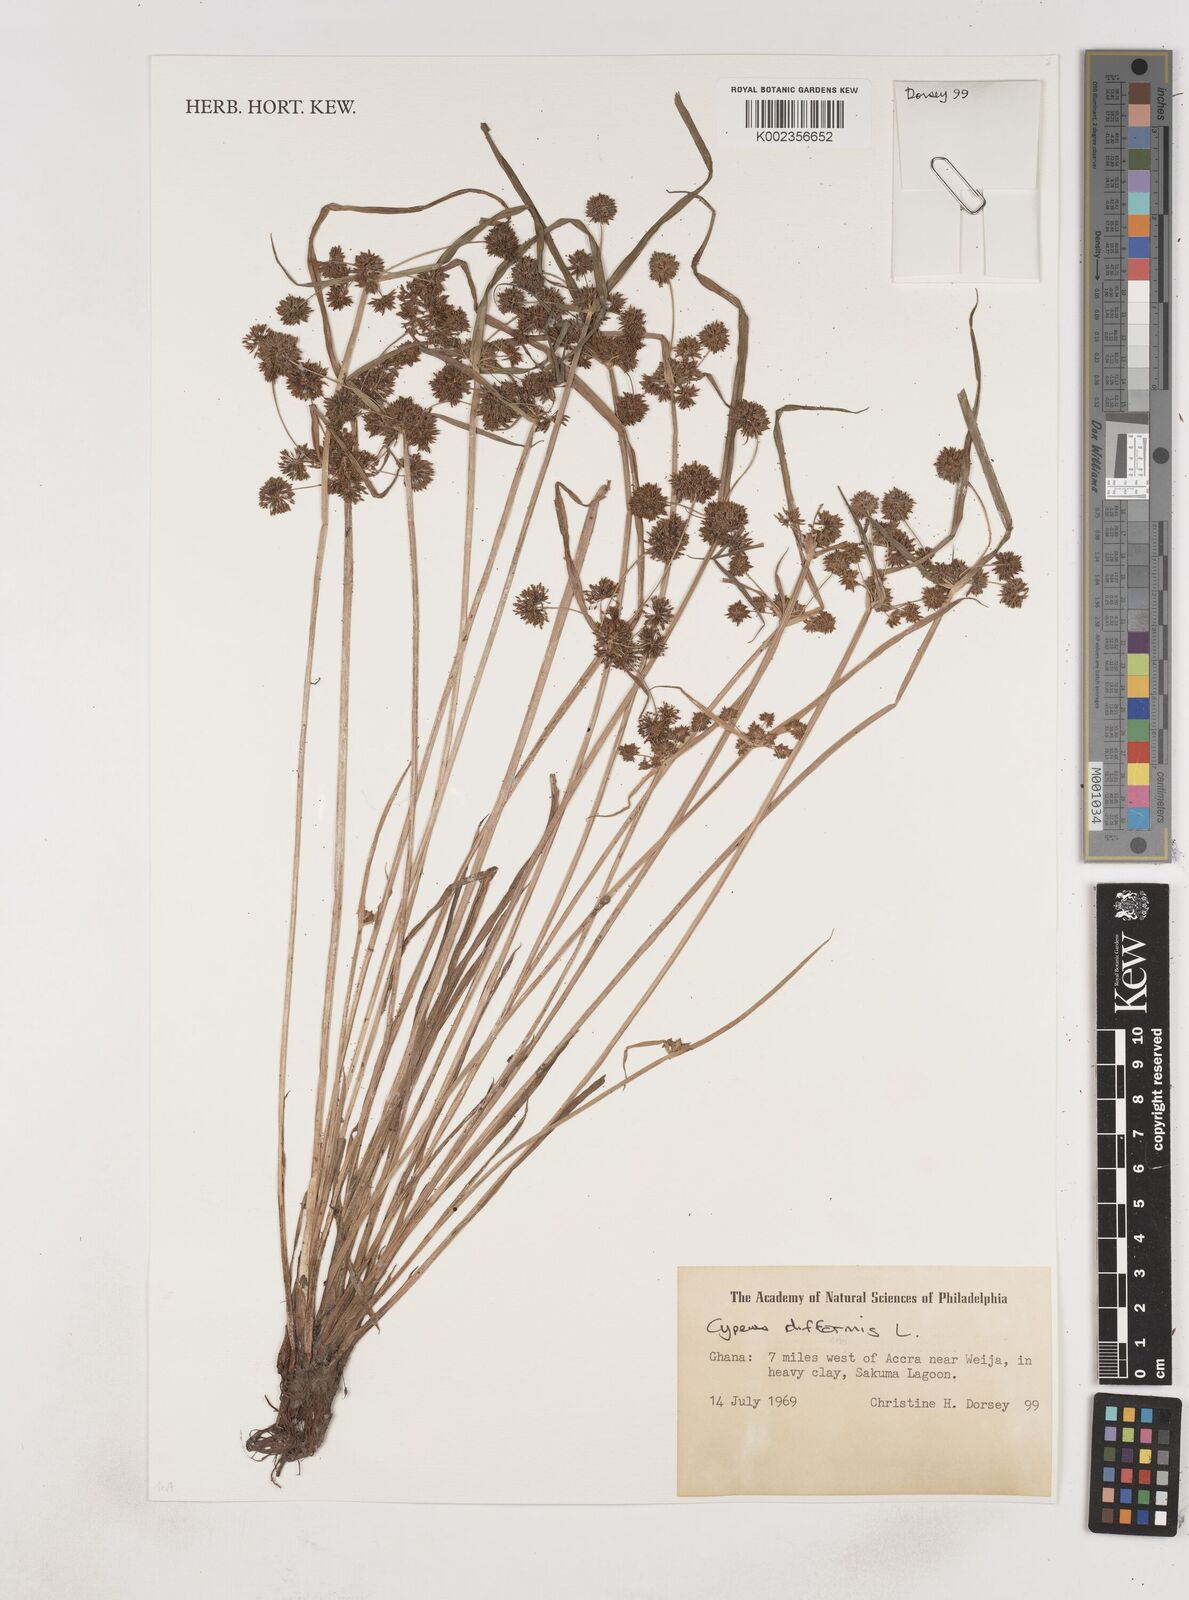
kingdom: Plantae
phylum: Tracheophyta
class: Liliopsida
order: Poales
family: Cyperaceae
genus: Cyperus
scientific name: Cyperus difformis
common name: Variable flatsedge
